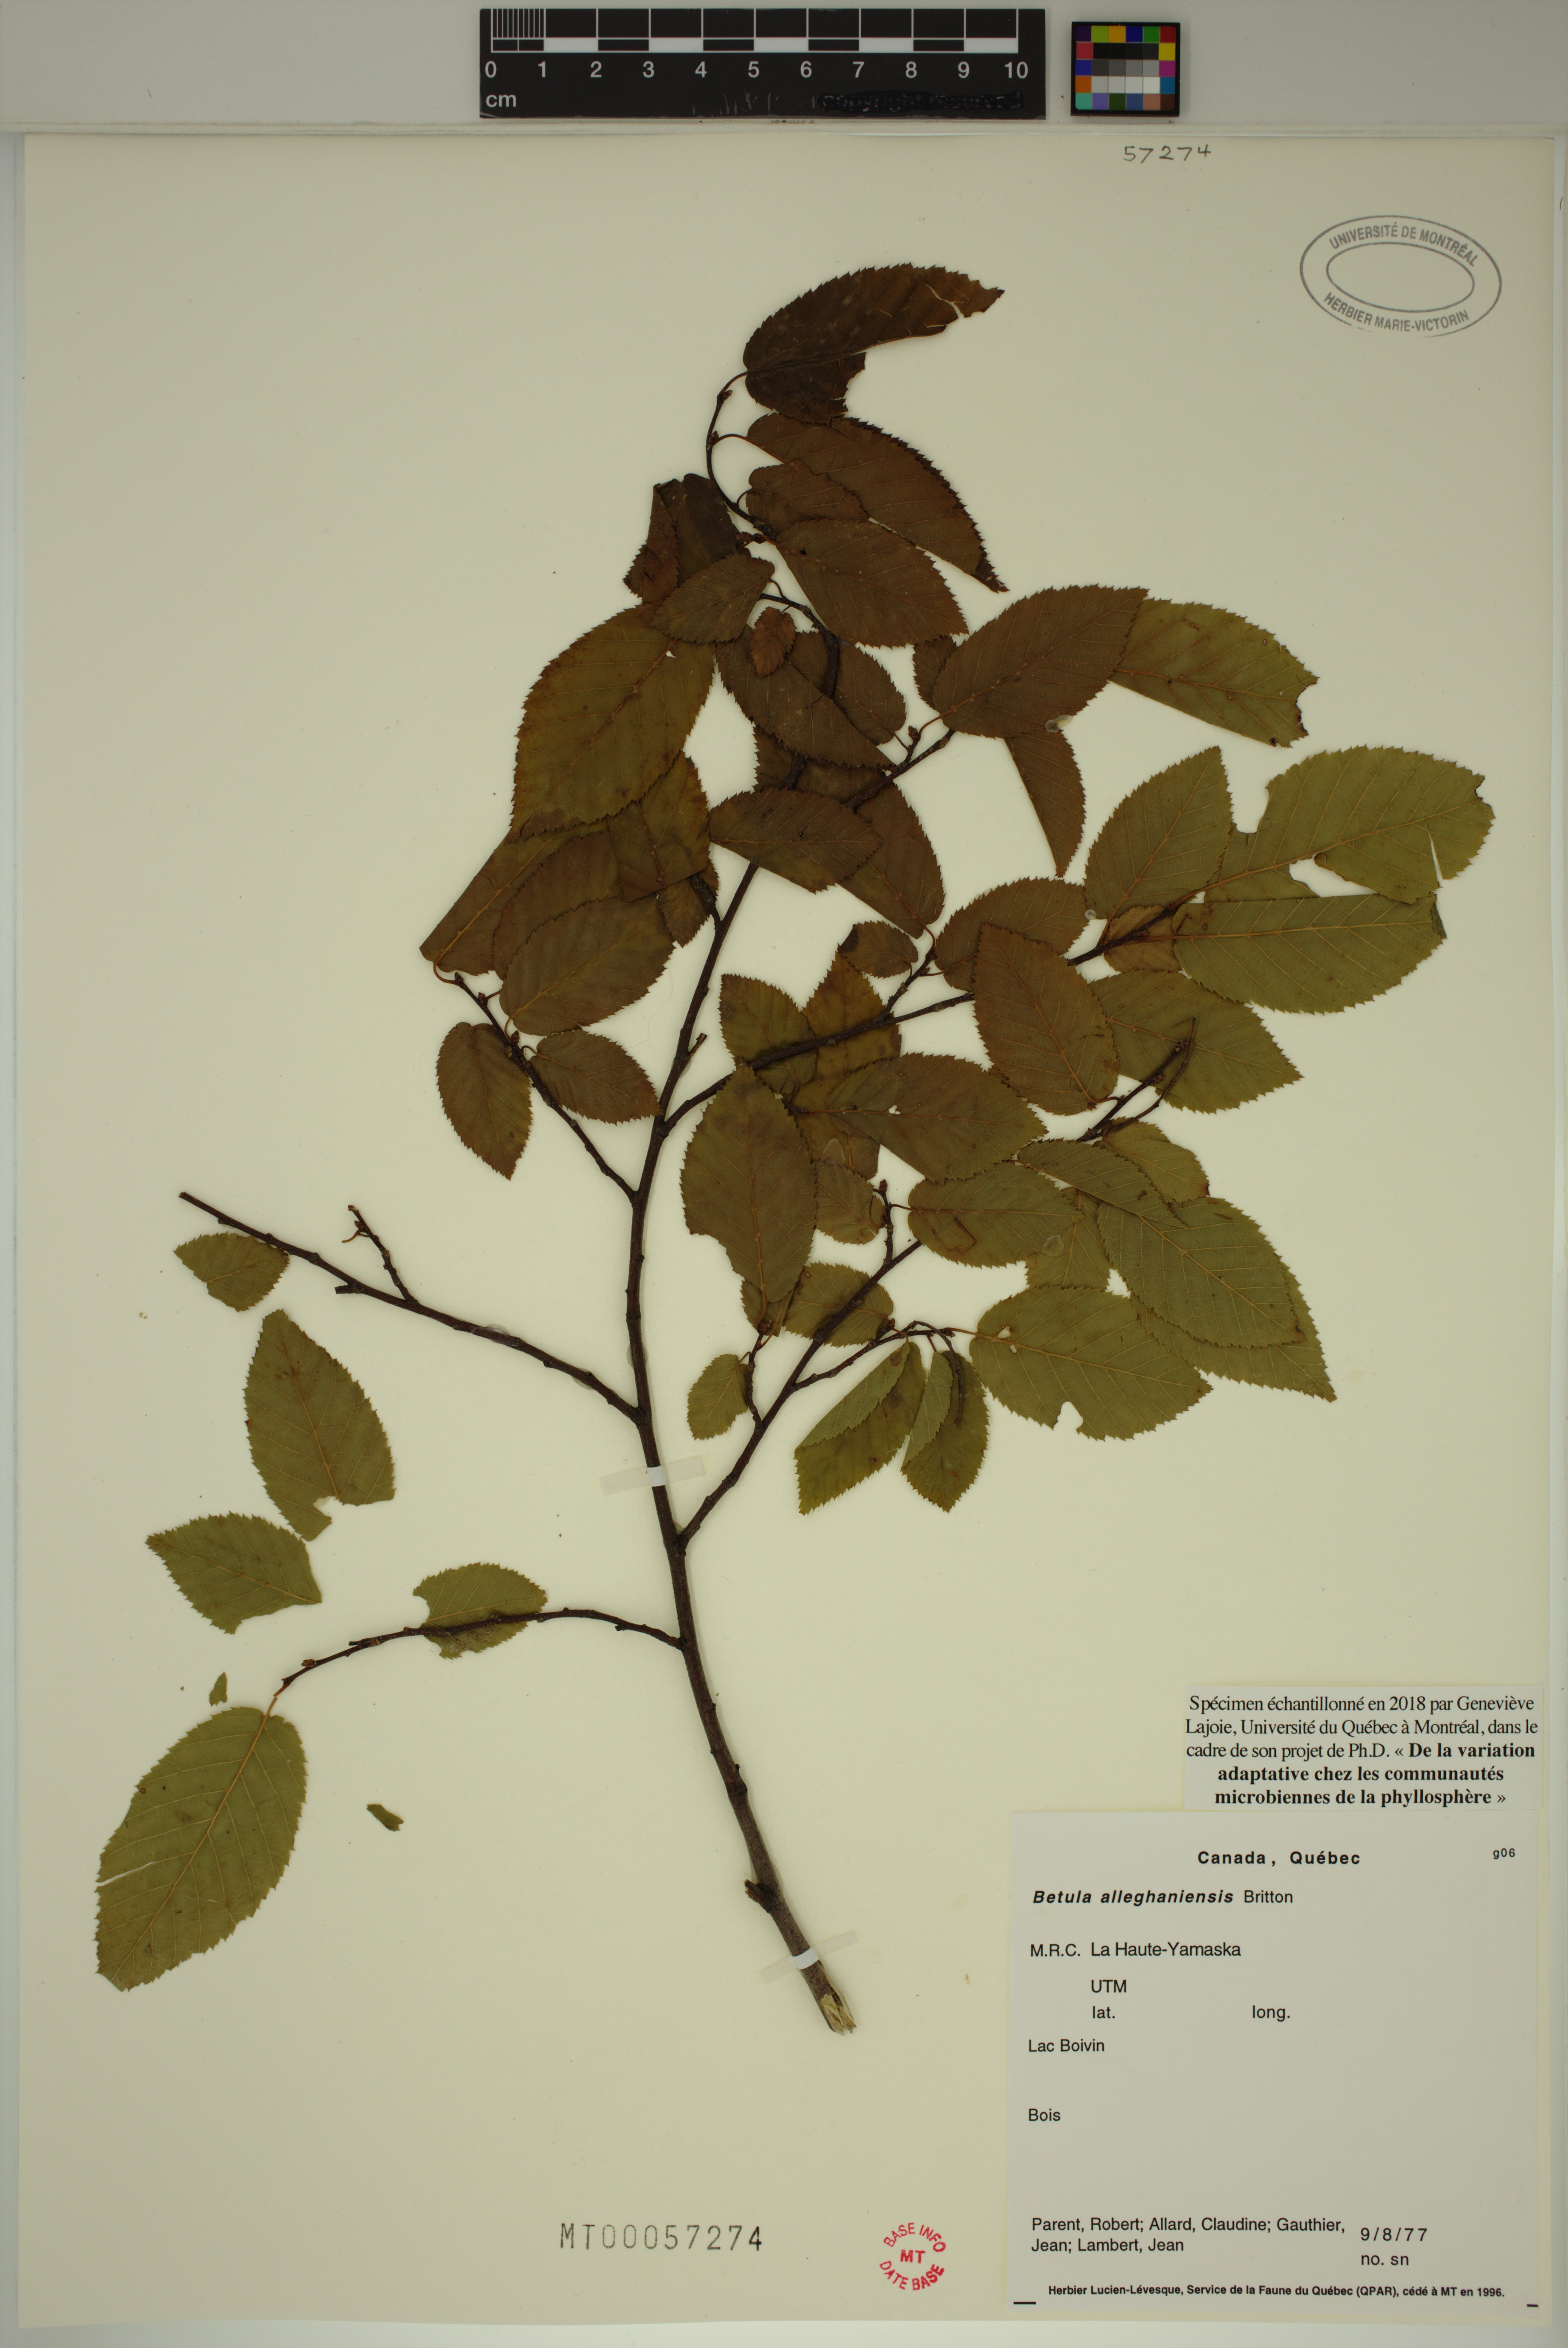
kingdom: Plantae
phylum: Tracheophyta
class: Magnoliopsida
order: Fagales
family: Betulaceae
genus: Betula
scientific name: Betula alleghaniensis
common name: Yellow birch
